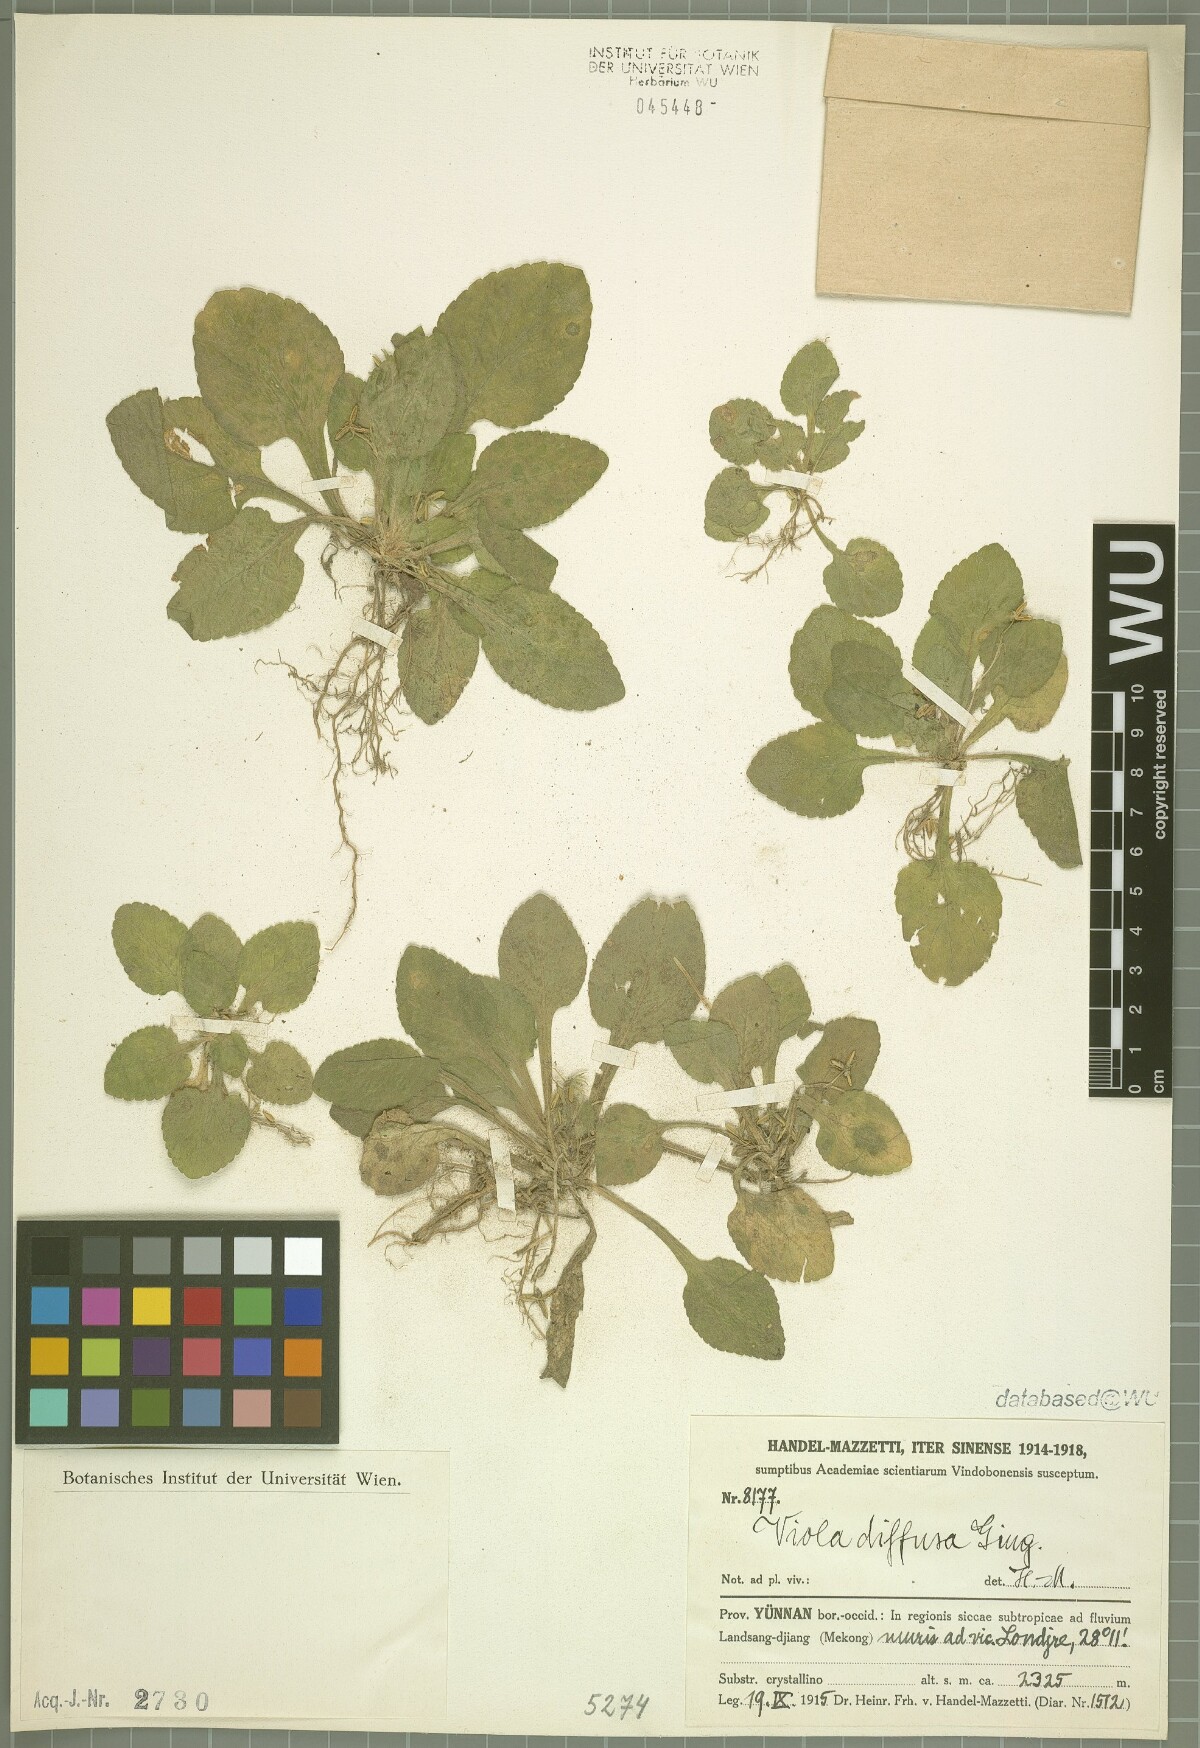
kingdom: Plantae
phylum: Tracheophyta
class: Magnoliopsida
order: Malpighiales
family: Violaceae
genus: Viola
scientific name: Viola diffusa
